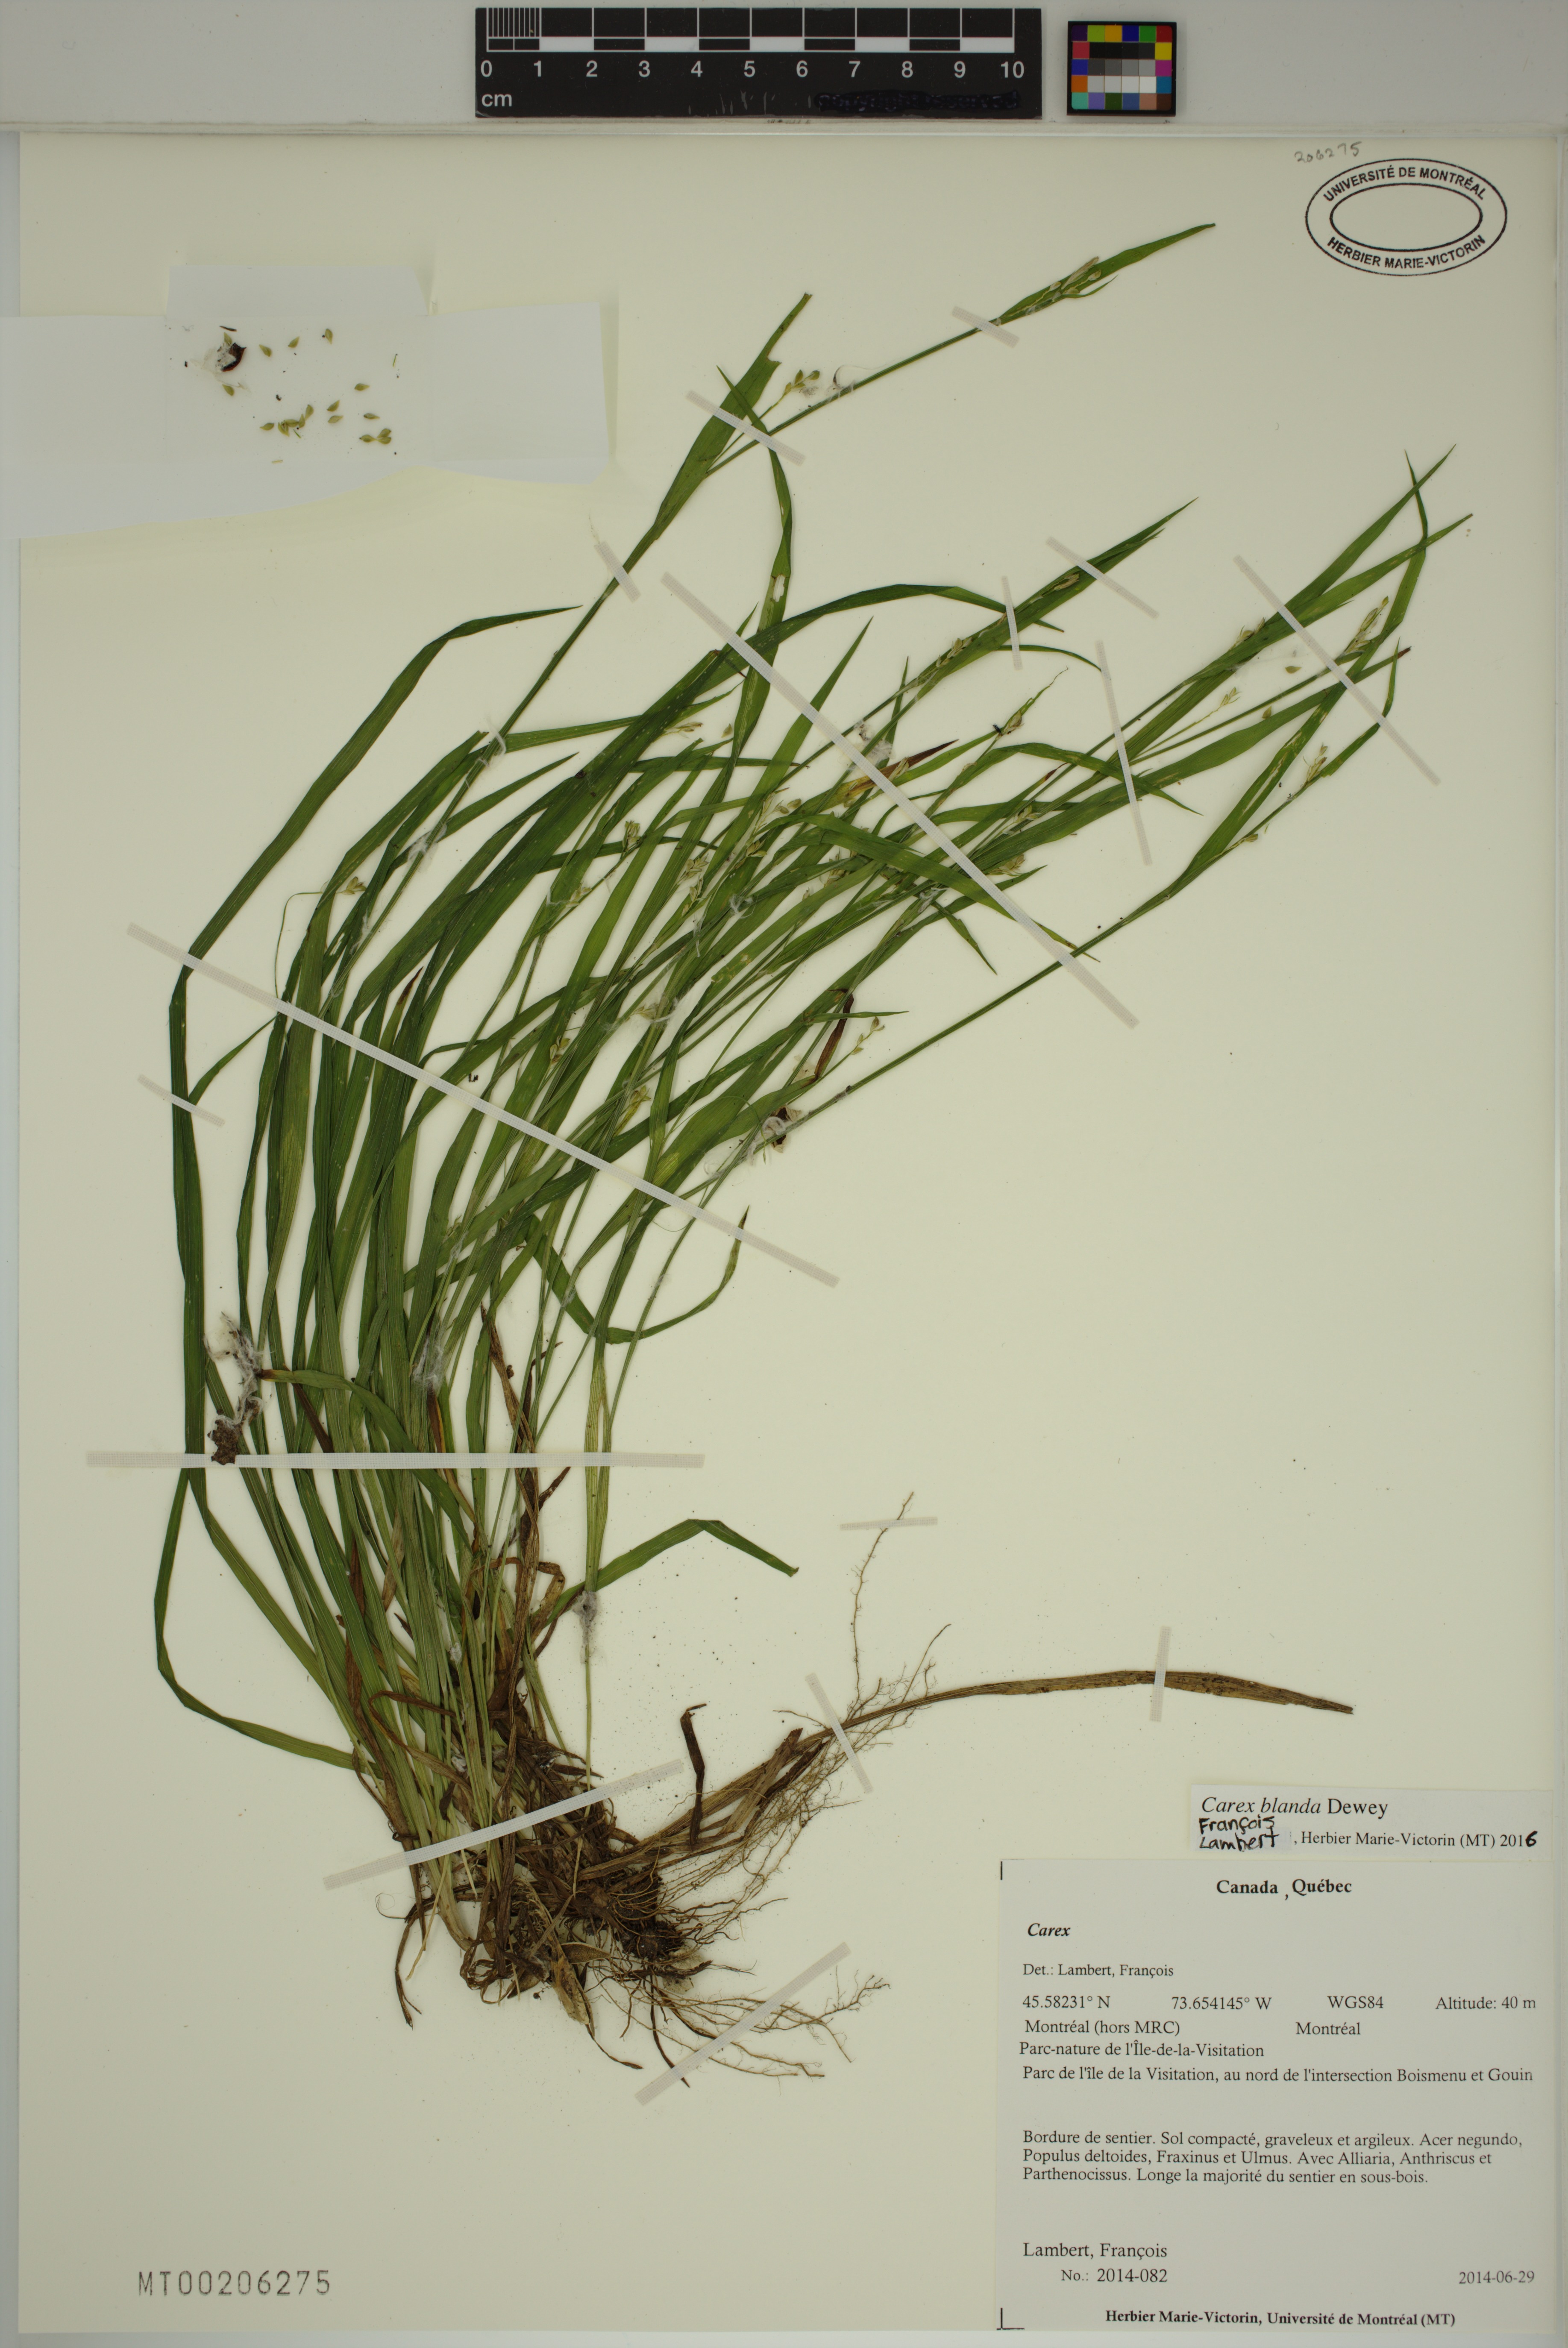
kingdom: Plantae
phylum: Tracheophyta
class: Liliopsida
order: Poales
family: Cyperaceae
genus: Carex
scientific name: Carex blanda
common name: Bland sedge
